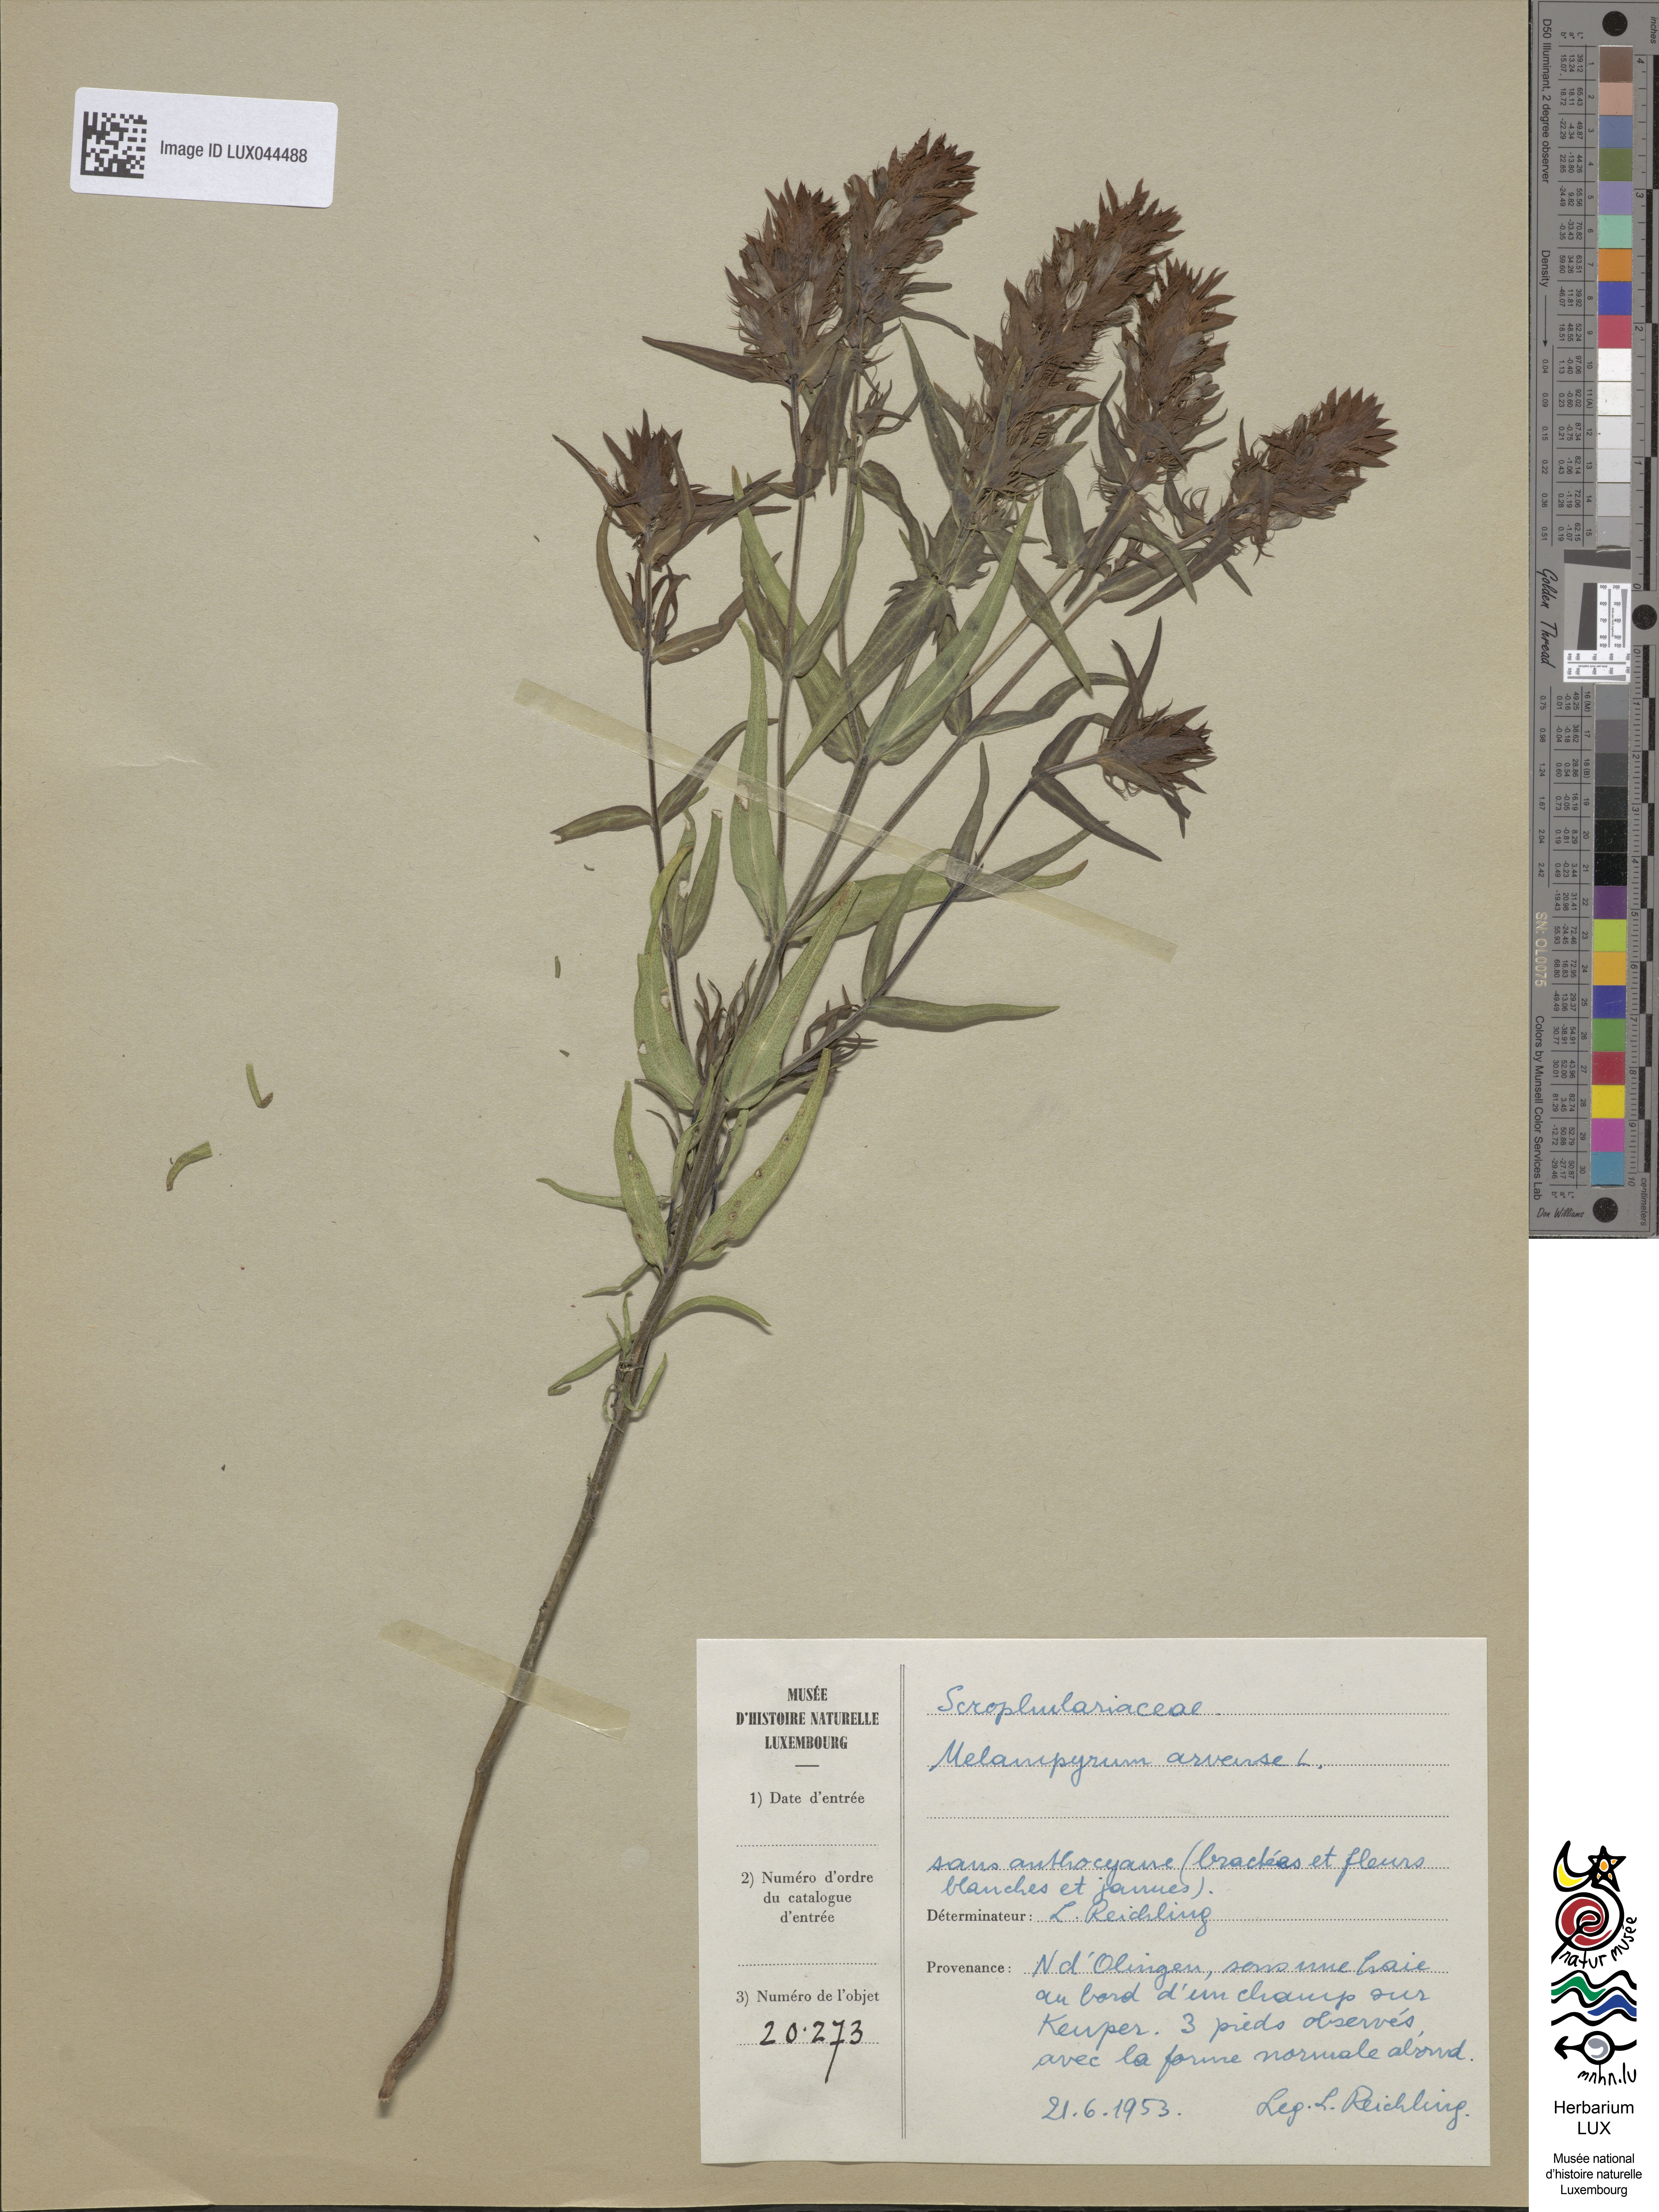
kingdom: Plantae
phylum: Tracheophyta
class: Magnoliopsida
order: Lamiales
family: Orobanchaceae
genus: Melampyrum
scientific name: Melampyrum arvense
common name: Field cow-wheat
